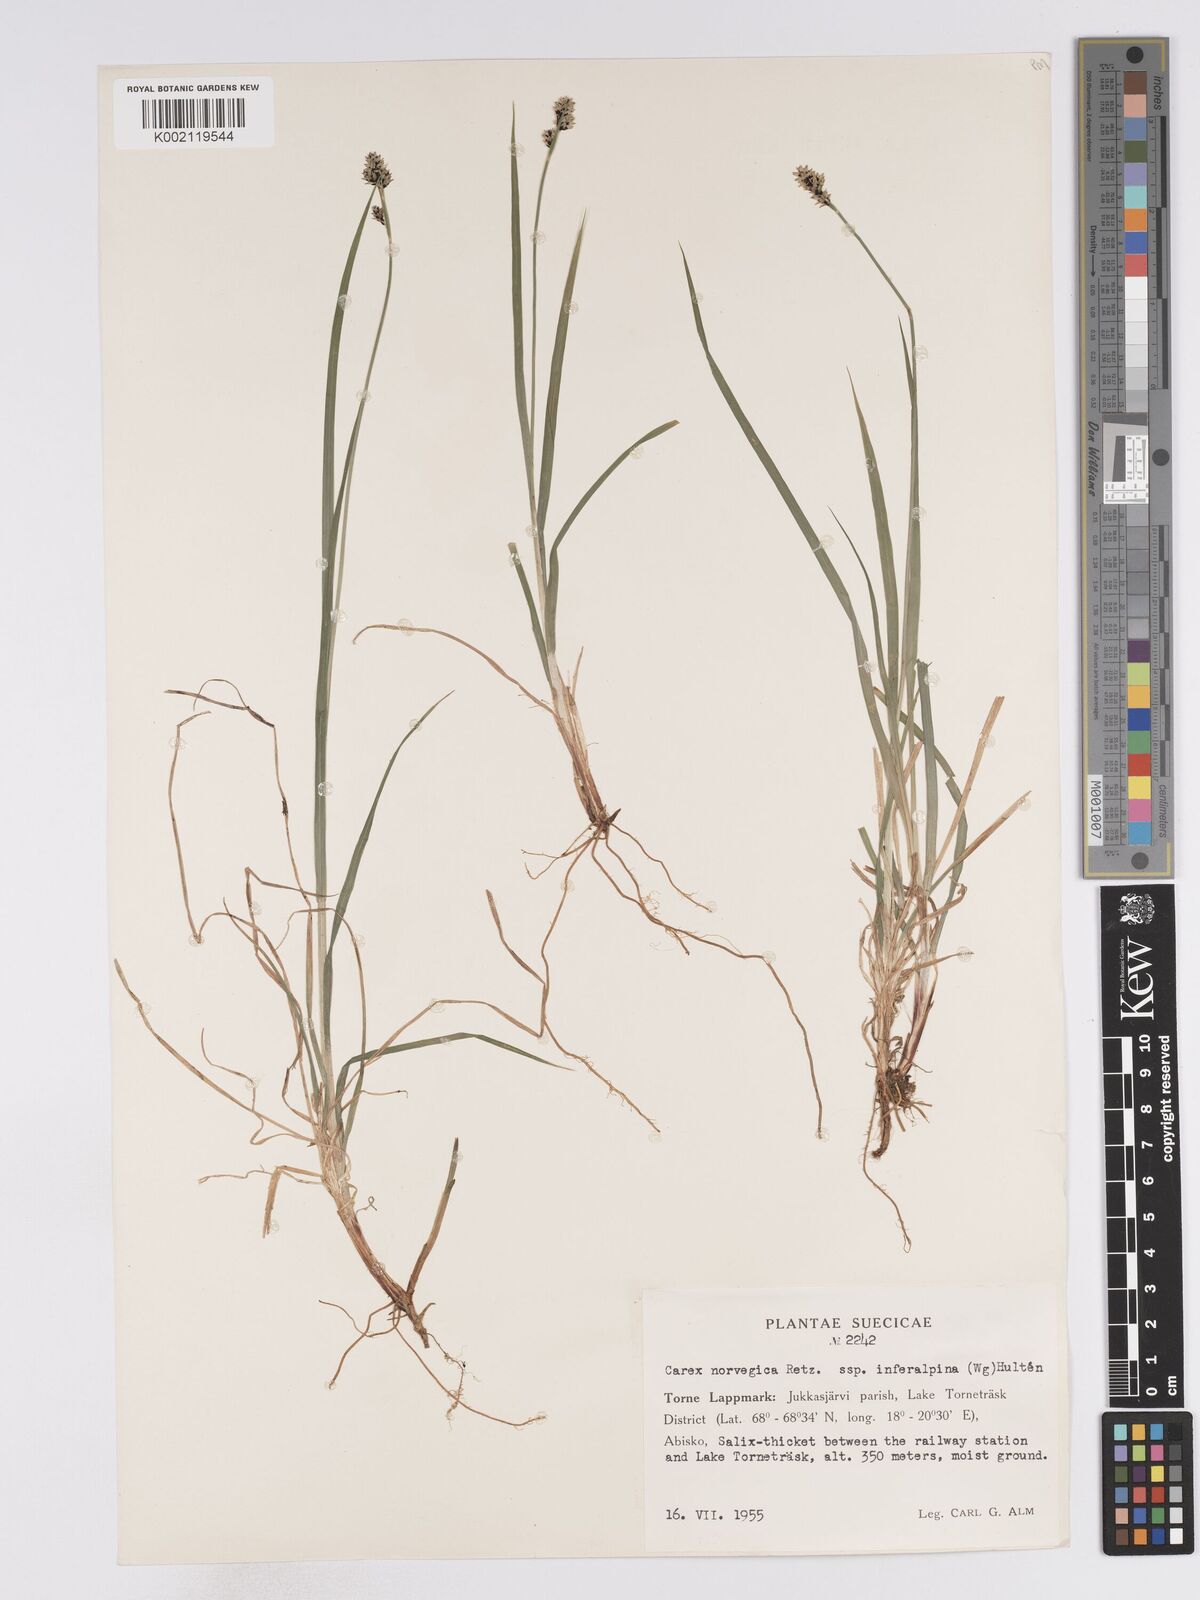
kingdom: Plantae
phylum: Tracheophyta
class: Liliopsida
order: Poales
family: Cyperaceae
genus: Carex
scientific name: Carex mackenziei
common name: Mackenzie's sedge
